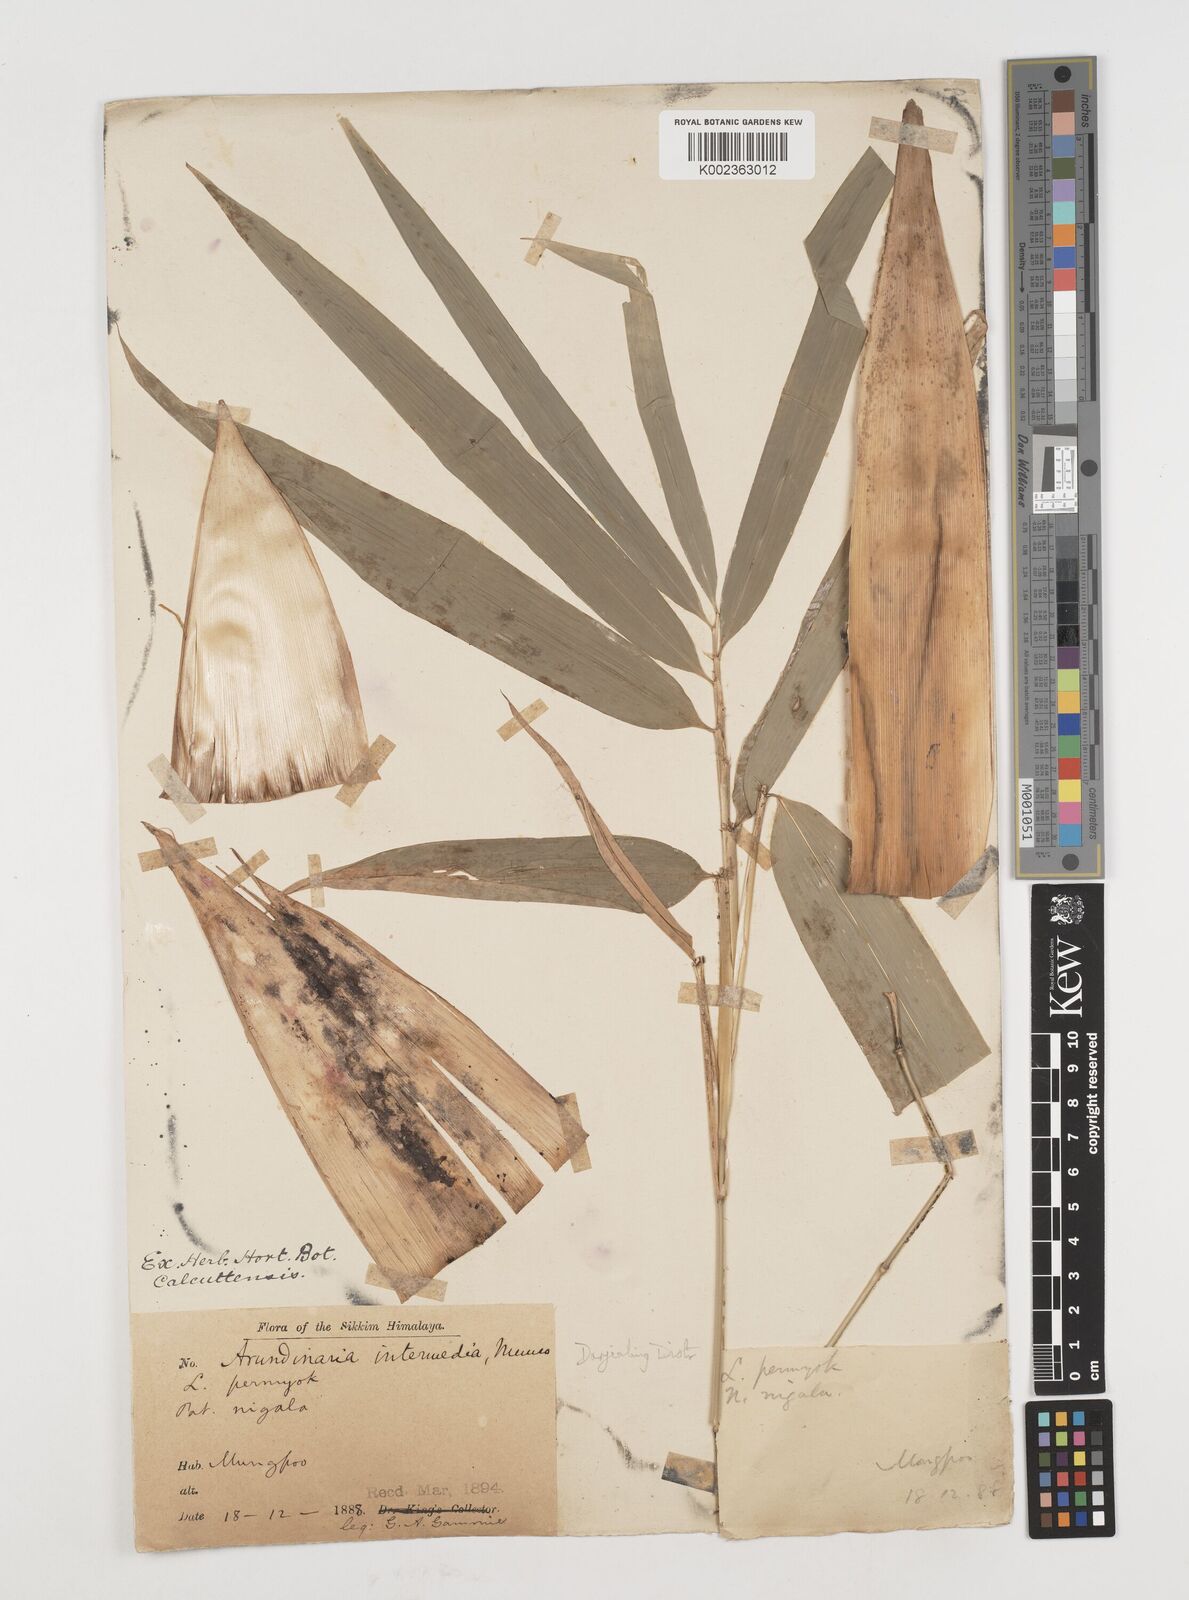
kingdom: Plantae
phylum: Tracheophyta
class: Liliopsida
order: Poales
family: Poaceae
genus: Drepanostachyum
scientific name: Drepanostachyum
